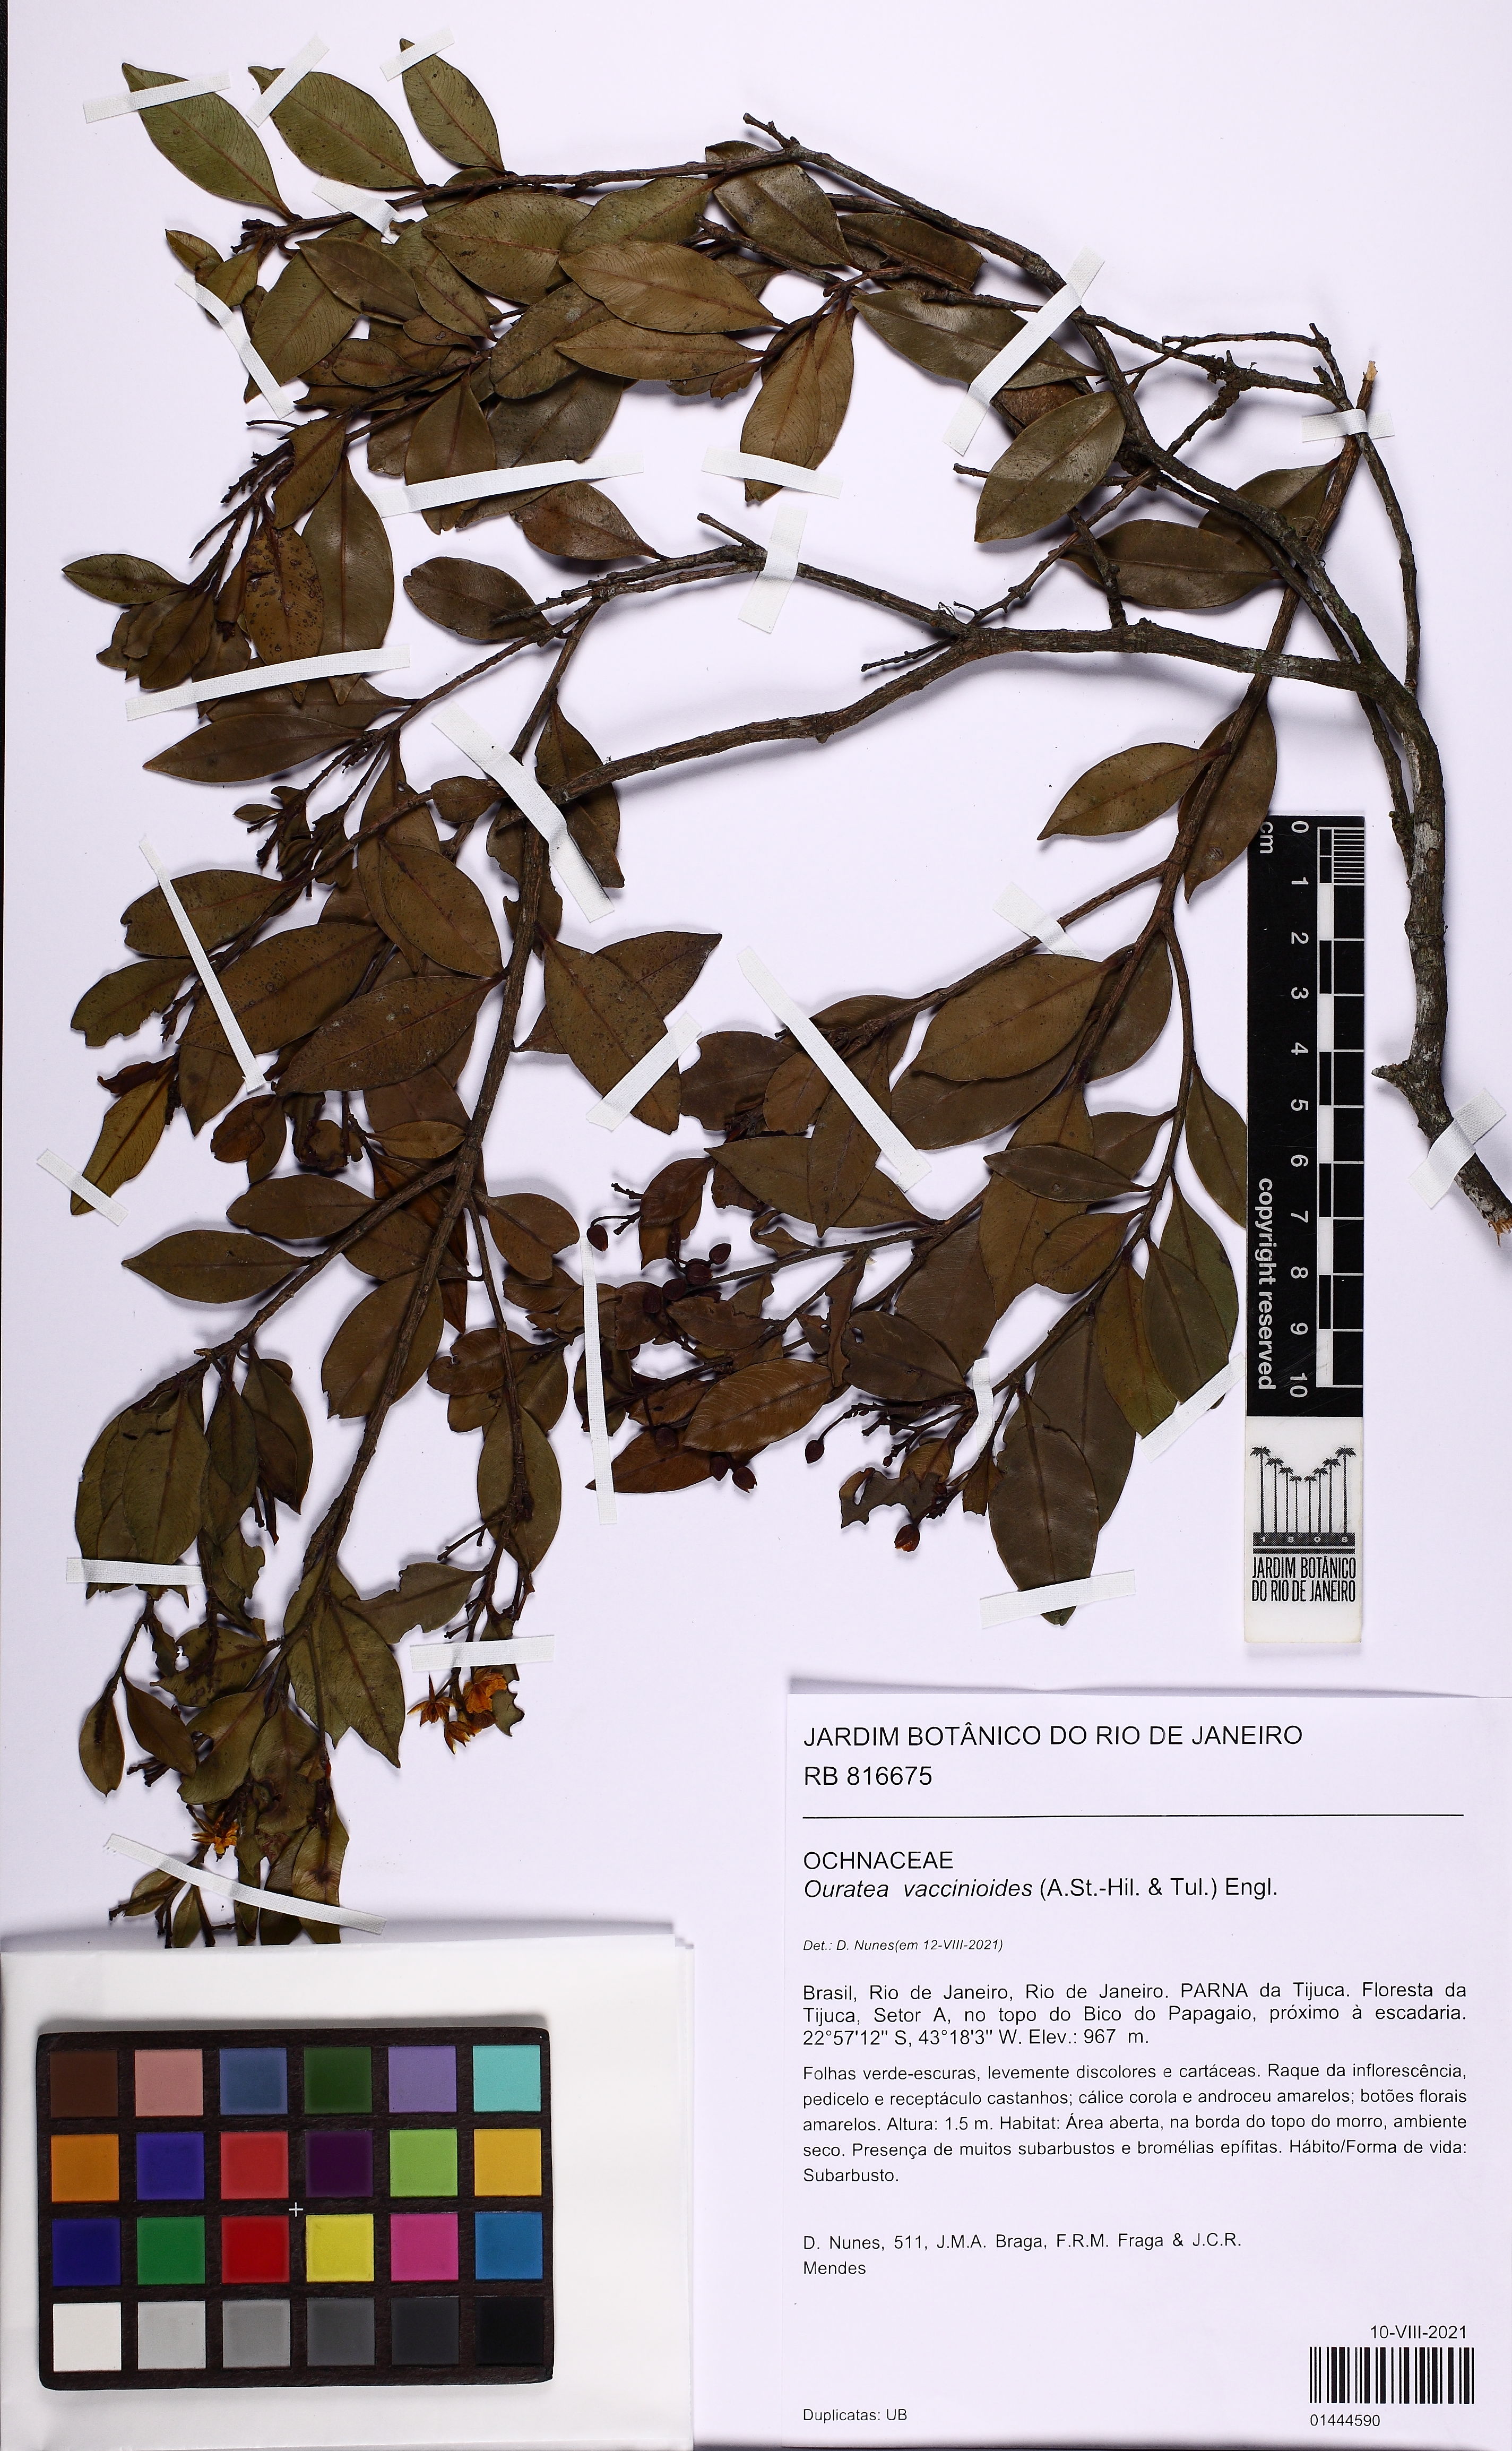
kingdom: Plantae
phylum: Tracheophyta
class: Magnoliopsida
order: Malpighiales
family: Ochnaceae
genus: Ouratea
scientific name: Ouratea vaccinioides
